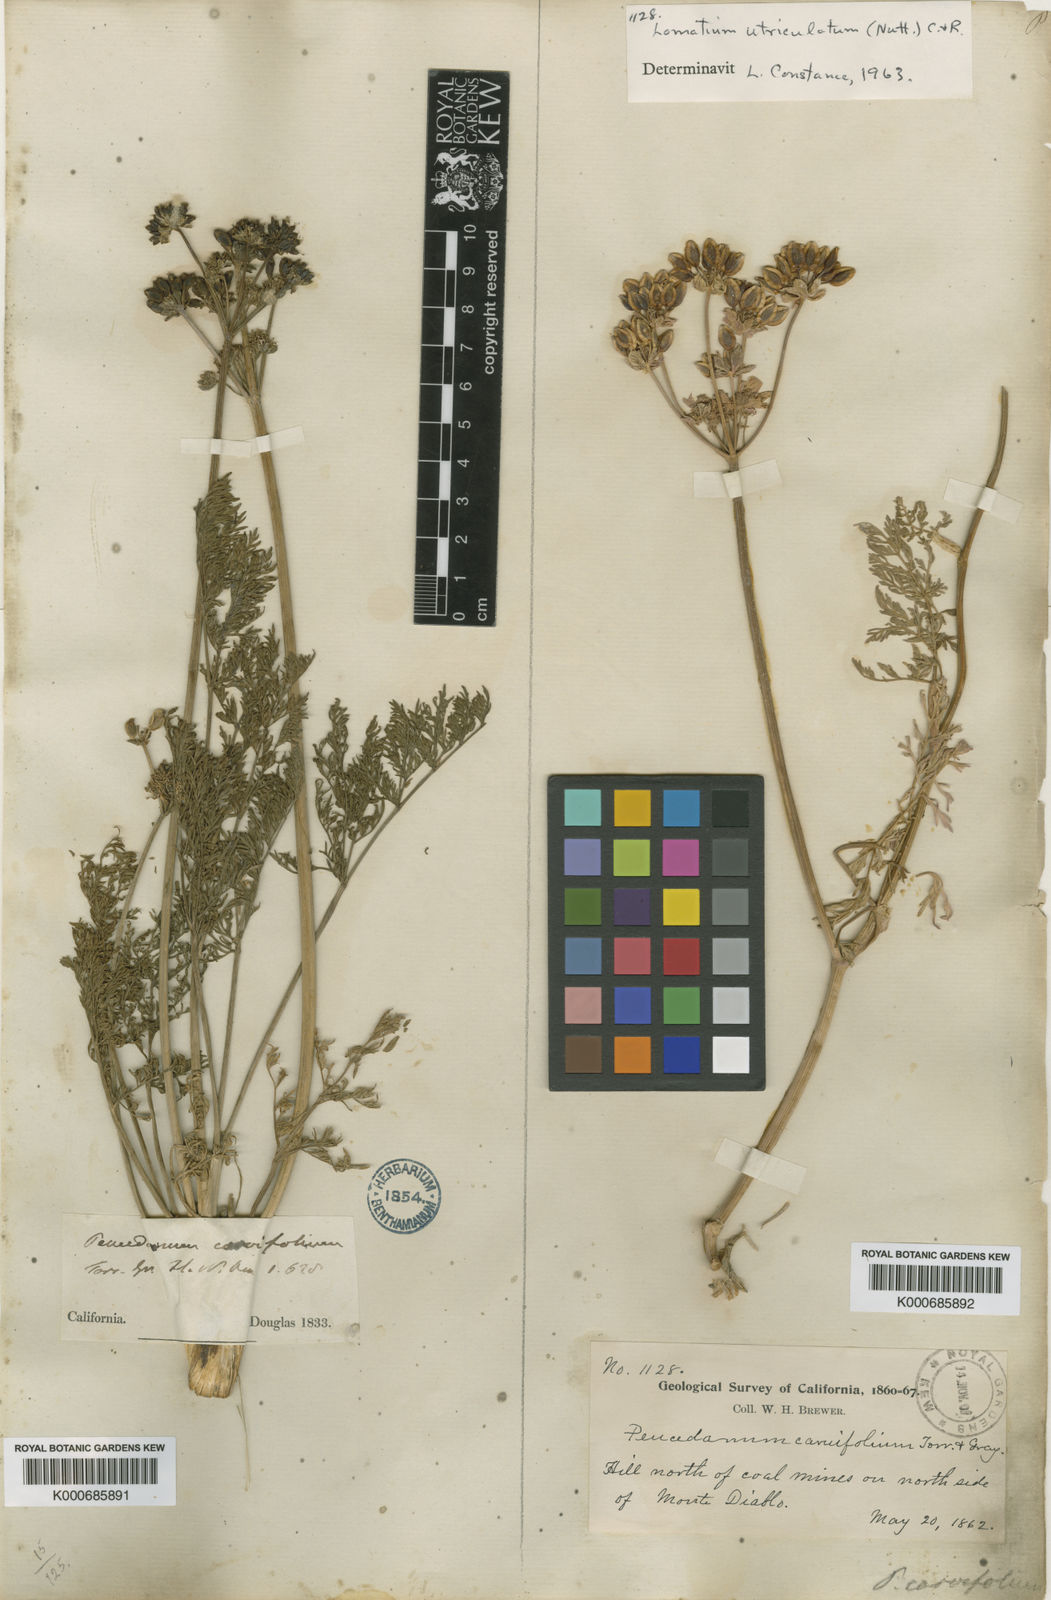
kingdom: Plantae
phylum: Tracheophyta
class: Magnoliopsida
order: Apiales
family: Apiaceae
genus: Lomatium
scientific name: Lomatium caruifolium
